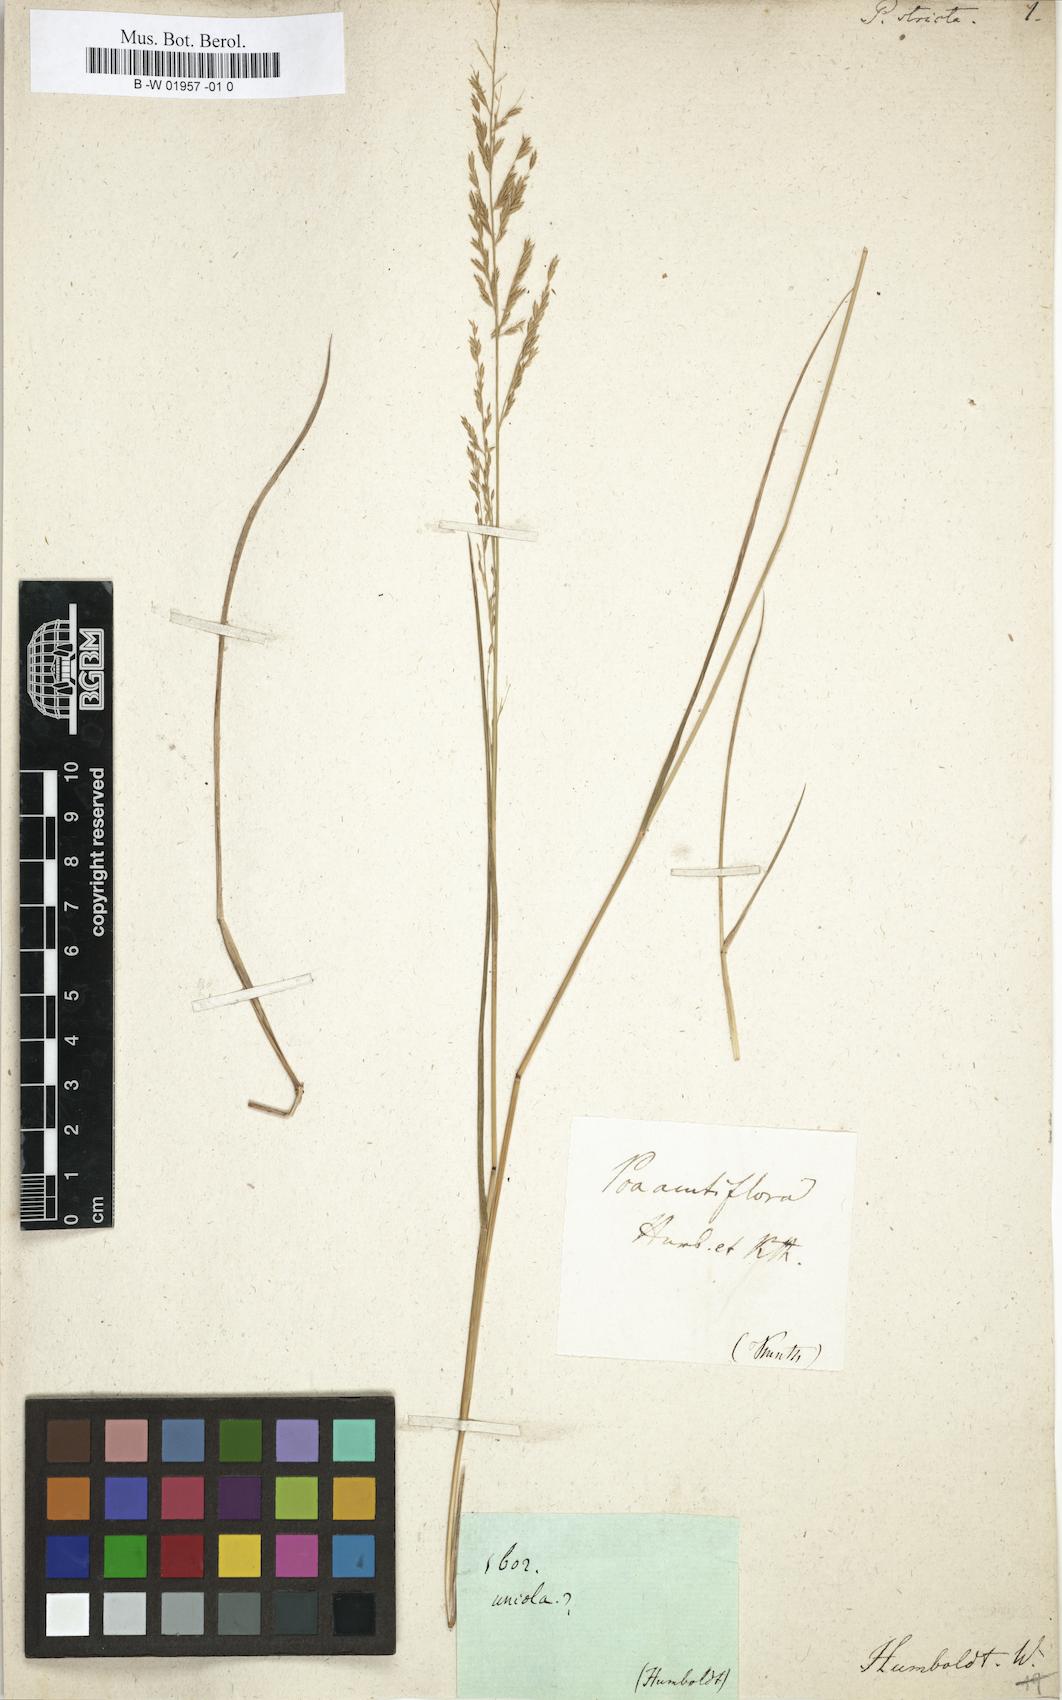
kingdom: Plantae
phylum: Tracheophyta
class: Liliopsida
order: Poales
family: Poaceae
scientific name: Poaceae
